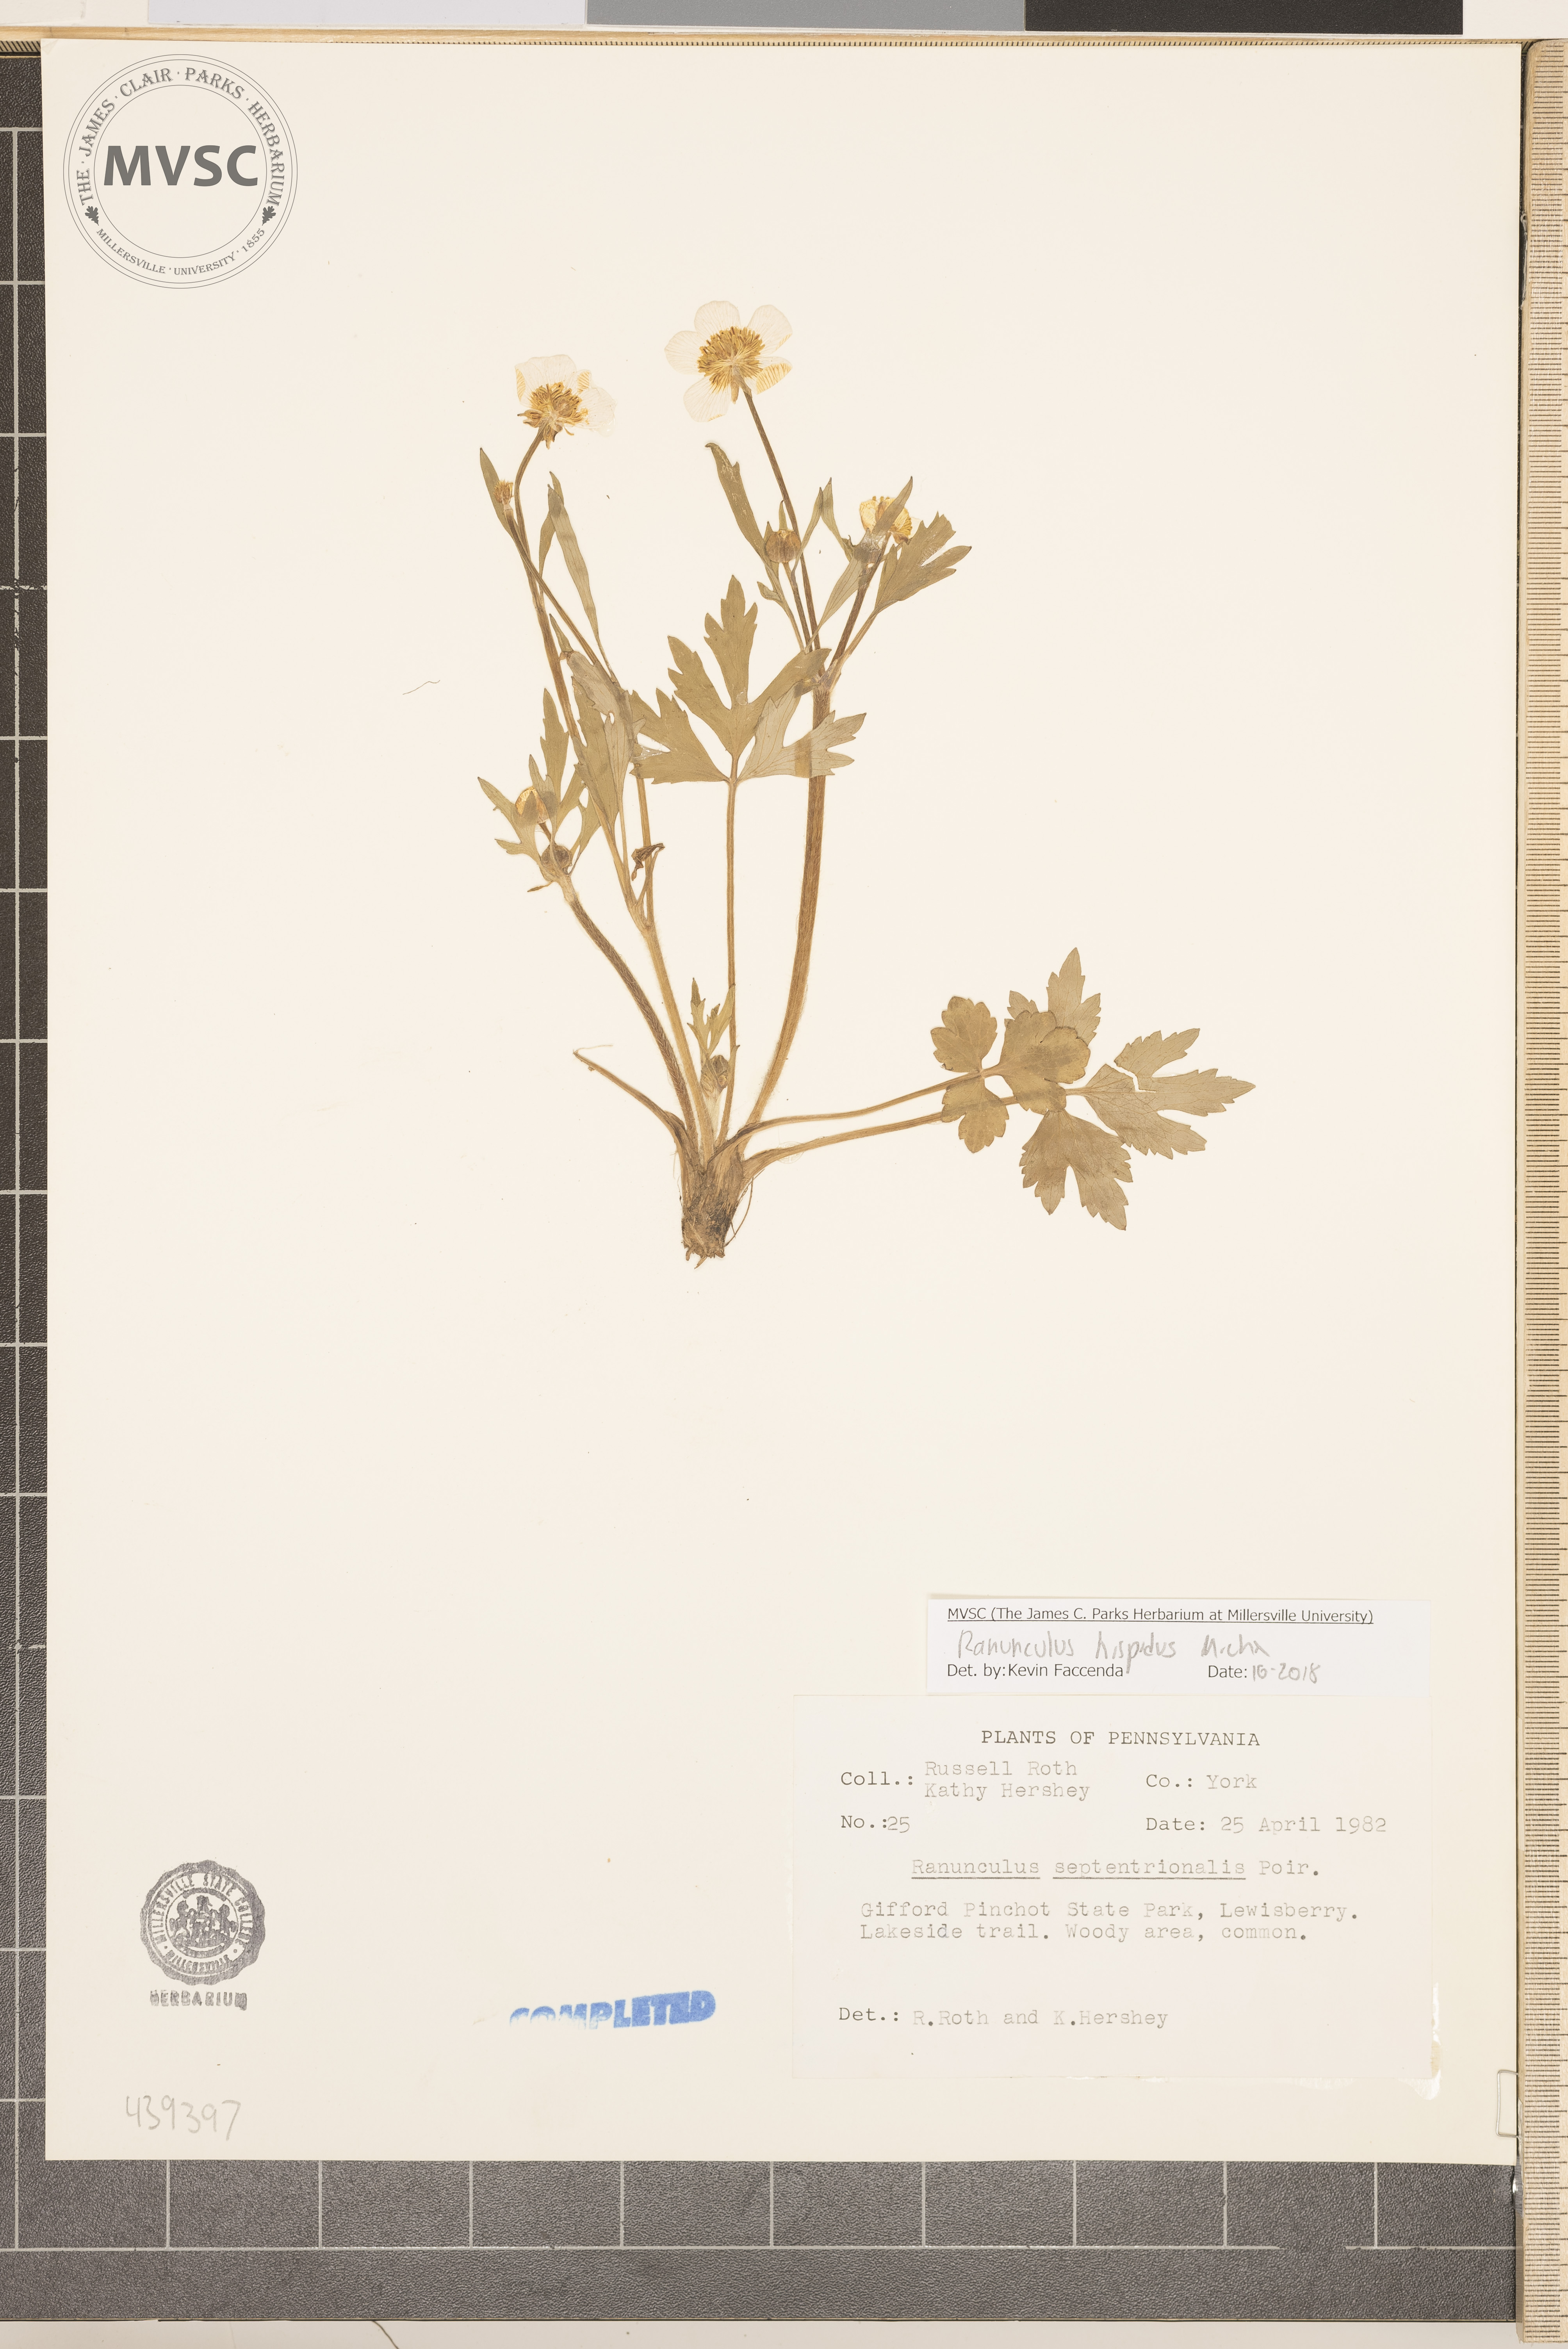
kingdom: Plantae
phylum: Tracheophyta
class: Magnoliopsida
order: Ranunculales
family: Ranunculaceae
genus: Ranunculus
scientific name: Ranunculus hispidus
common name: Bristly buttercup
